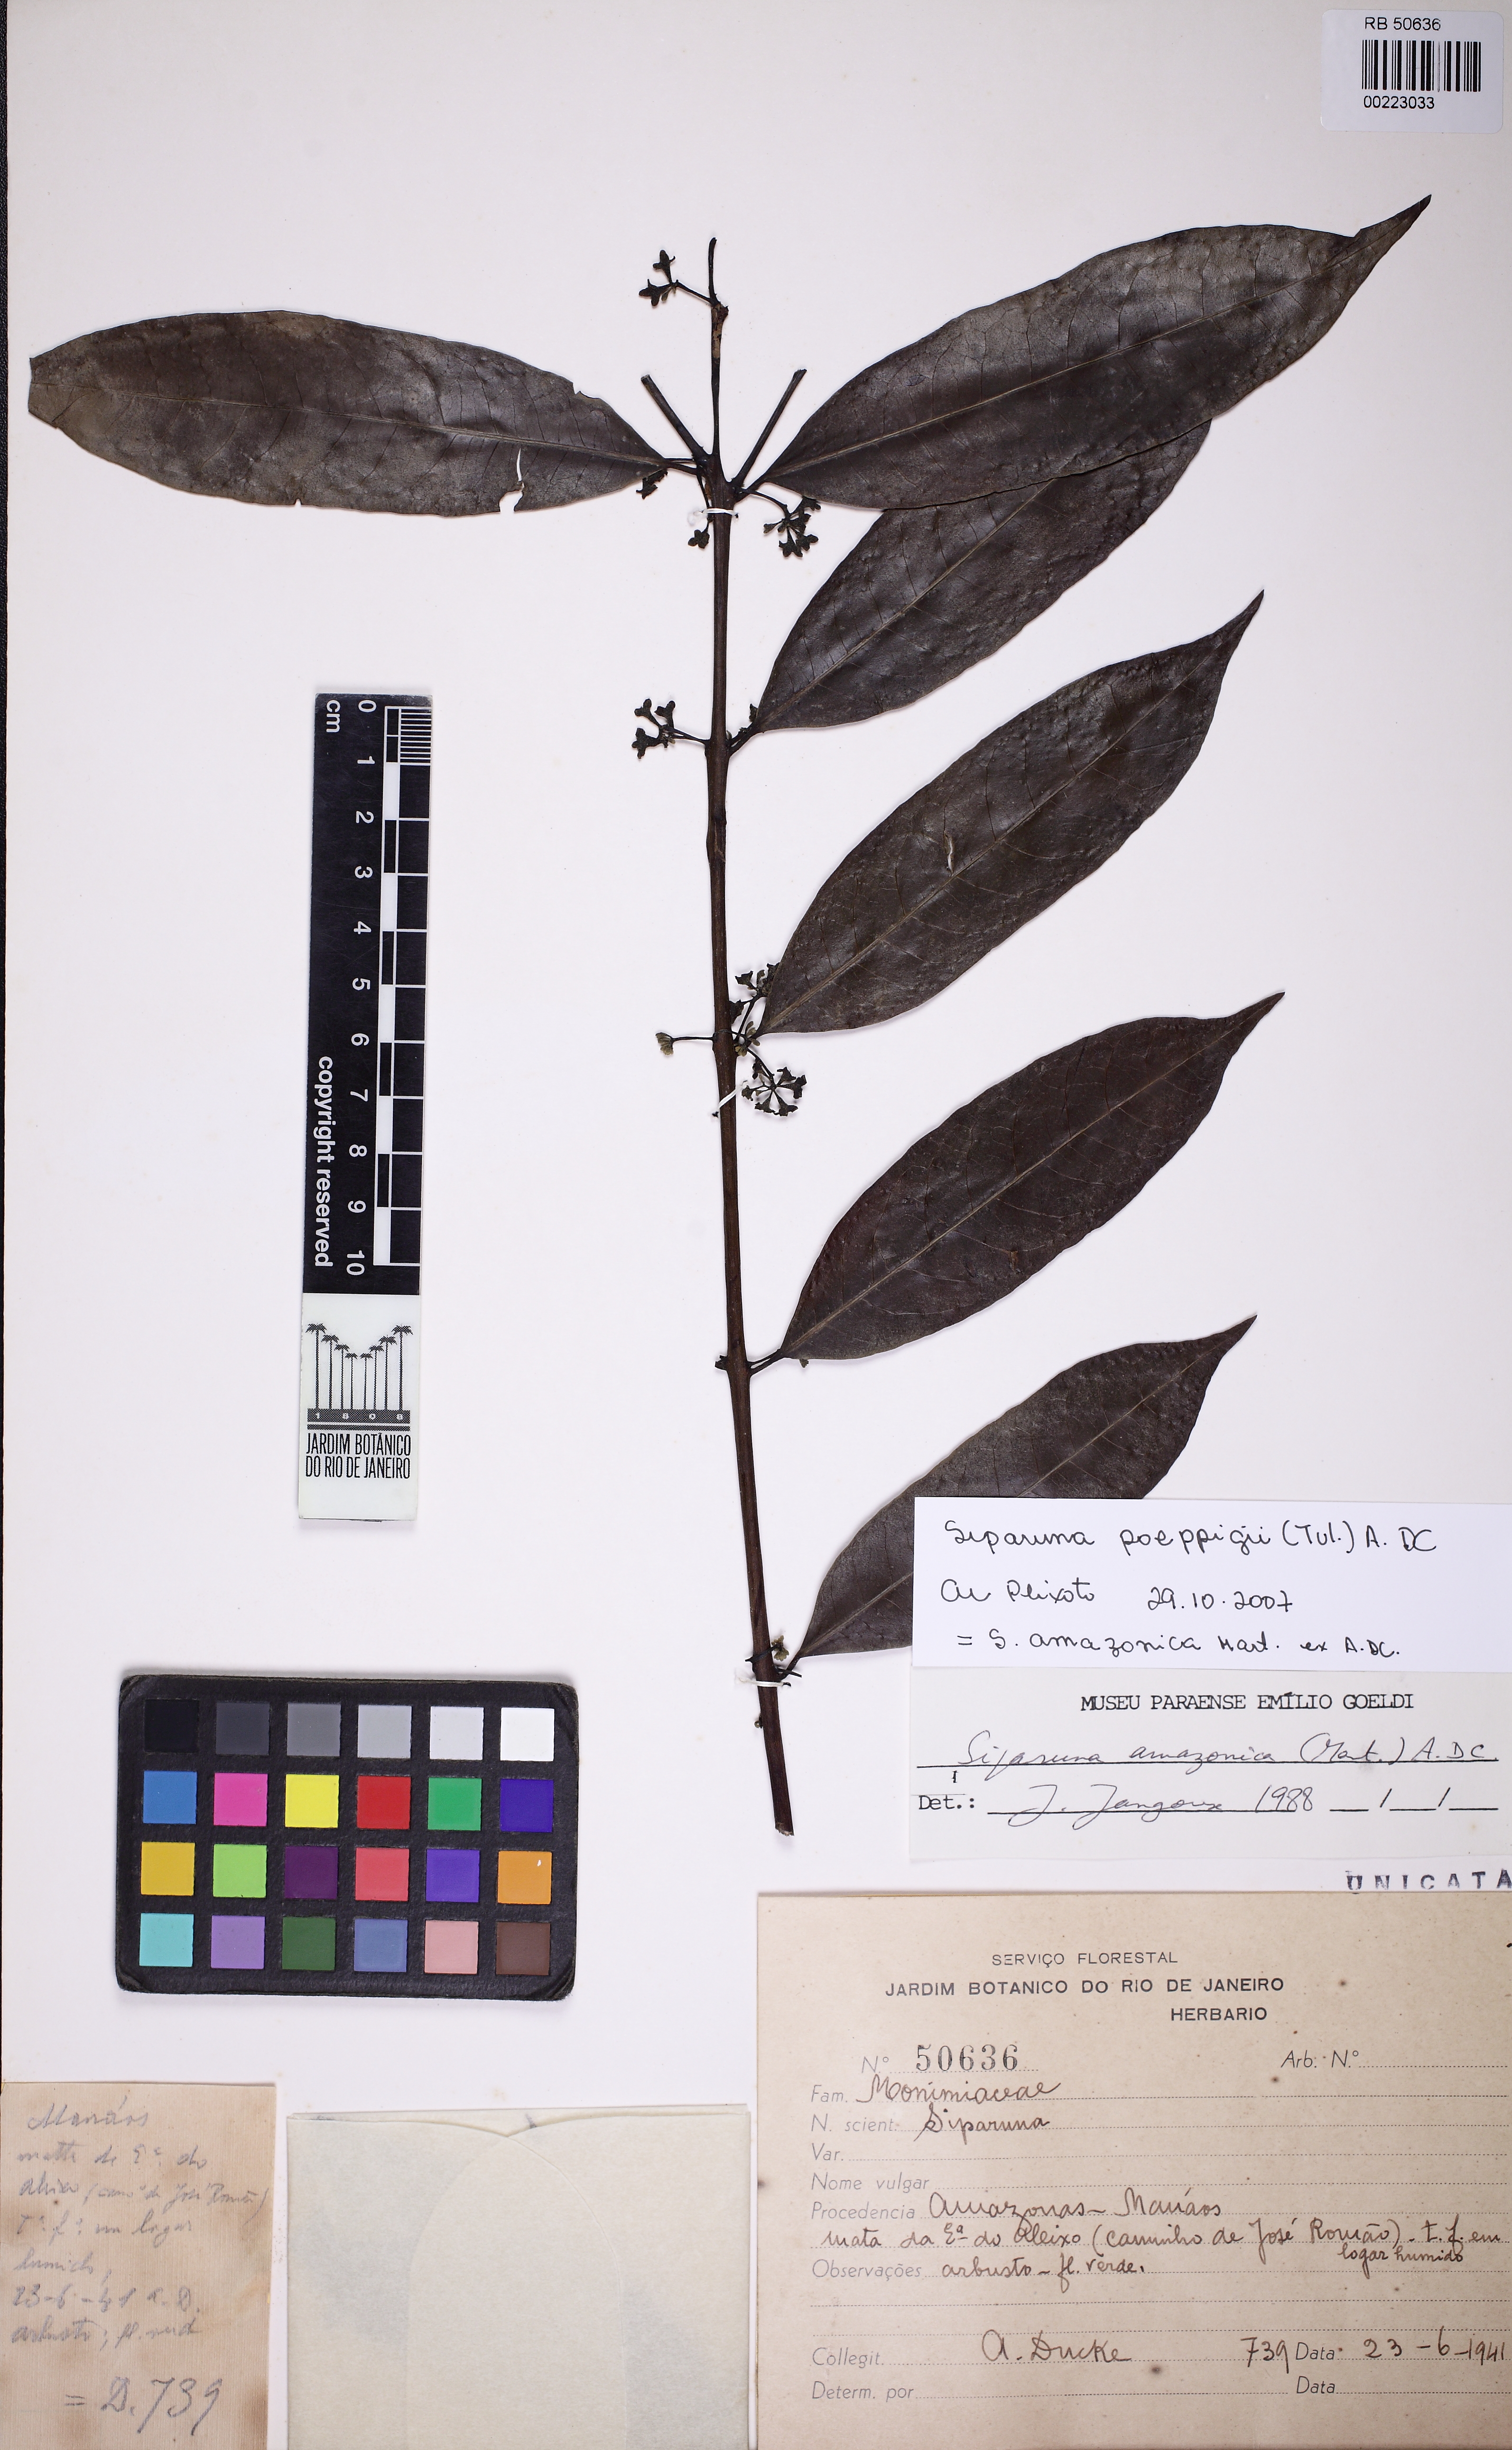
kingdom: Plantae
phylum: Tracheophyta
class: Magnoliopsida
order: Laurales
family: Siparunaceae
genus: Siparuna
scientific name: Siparuna poeppigii
